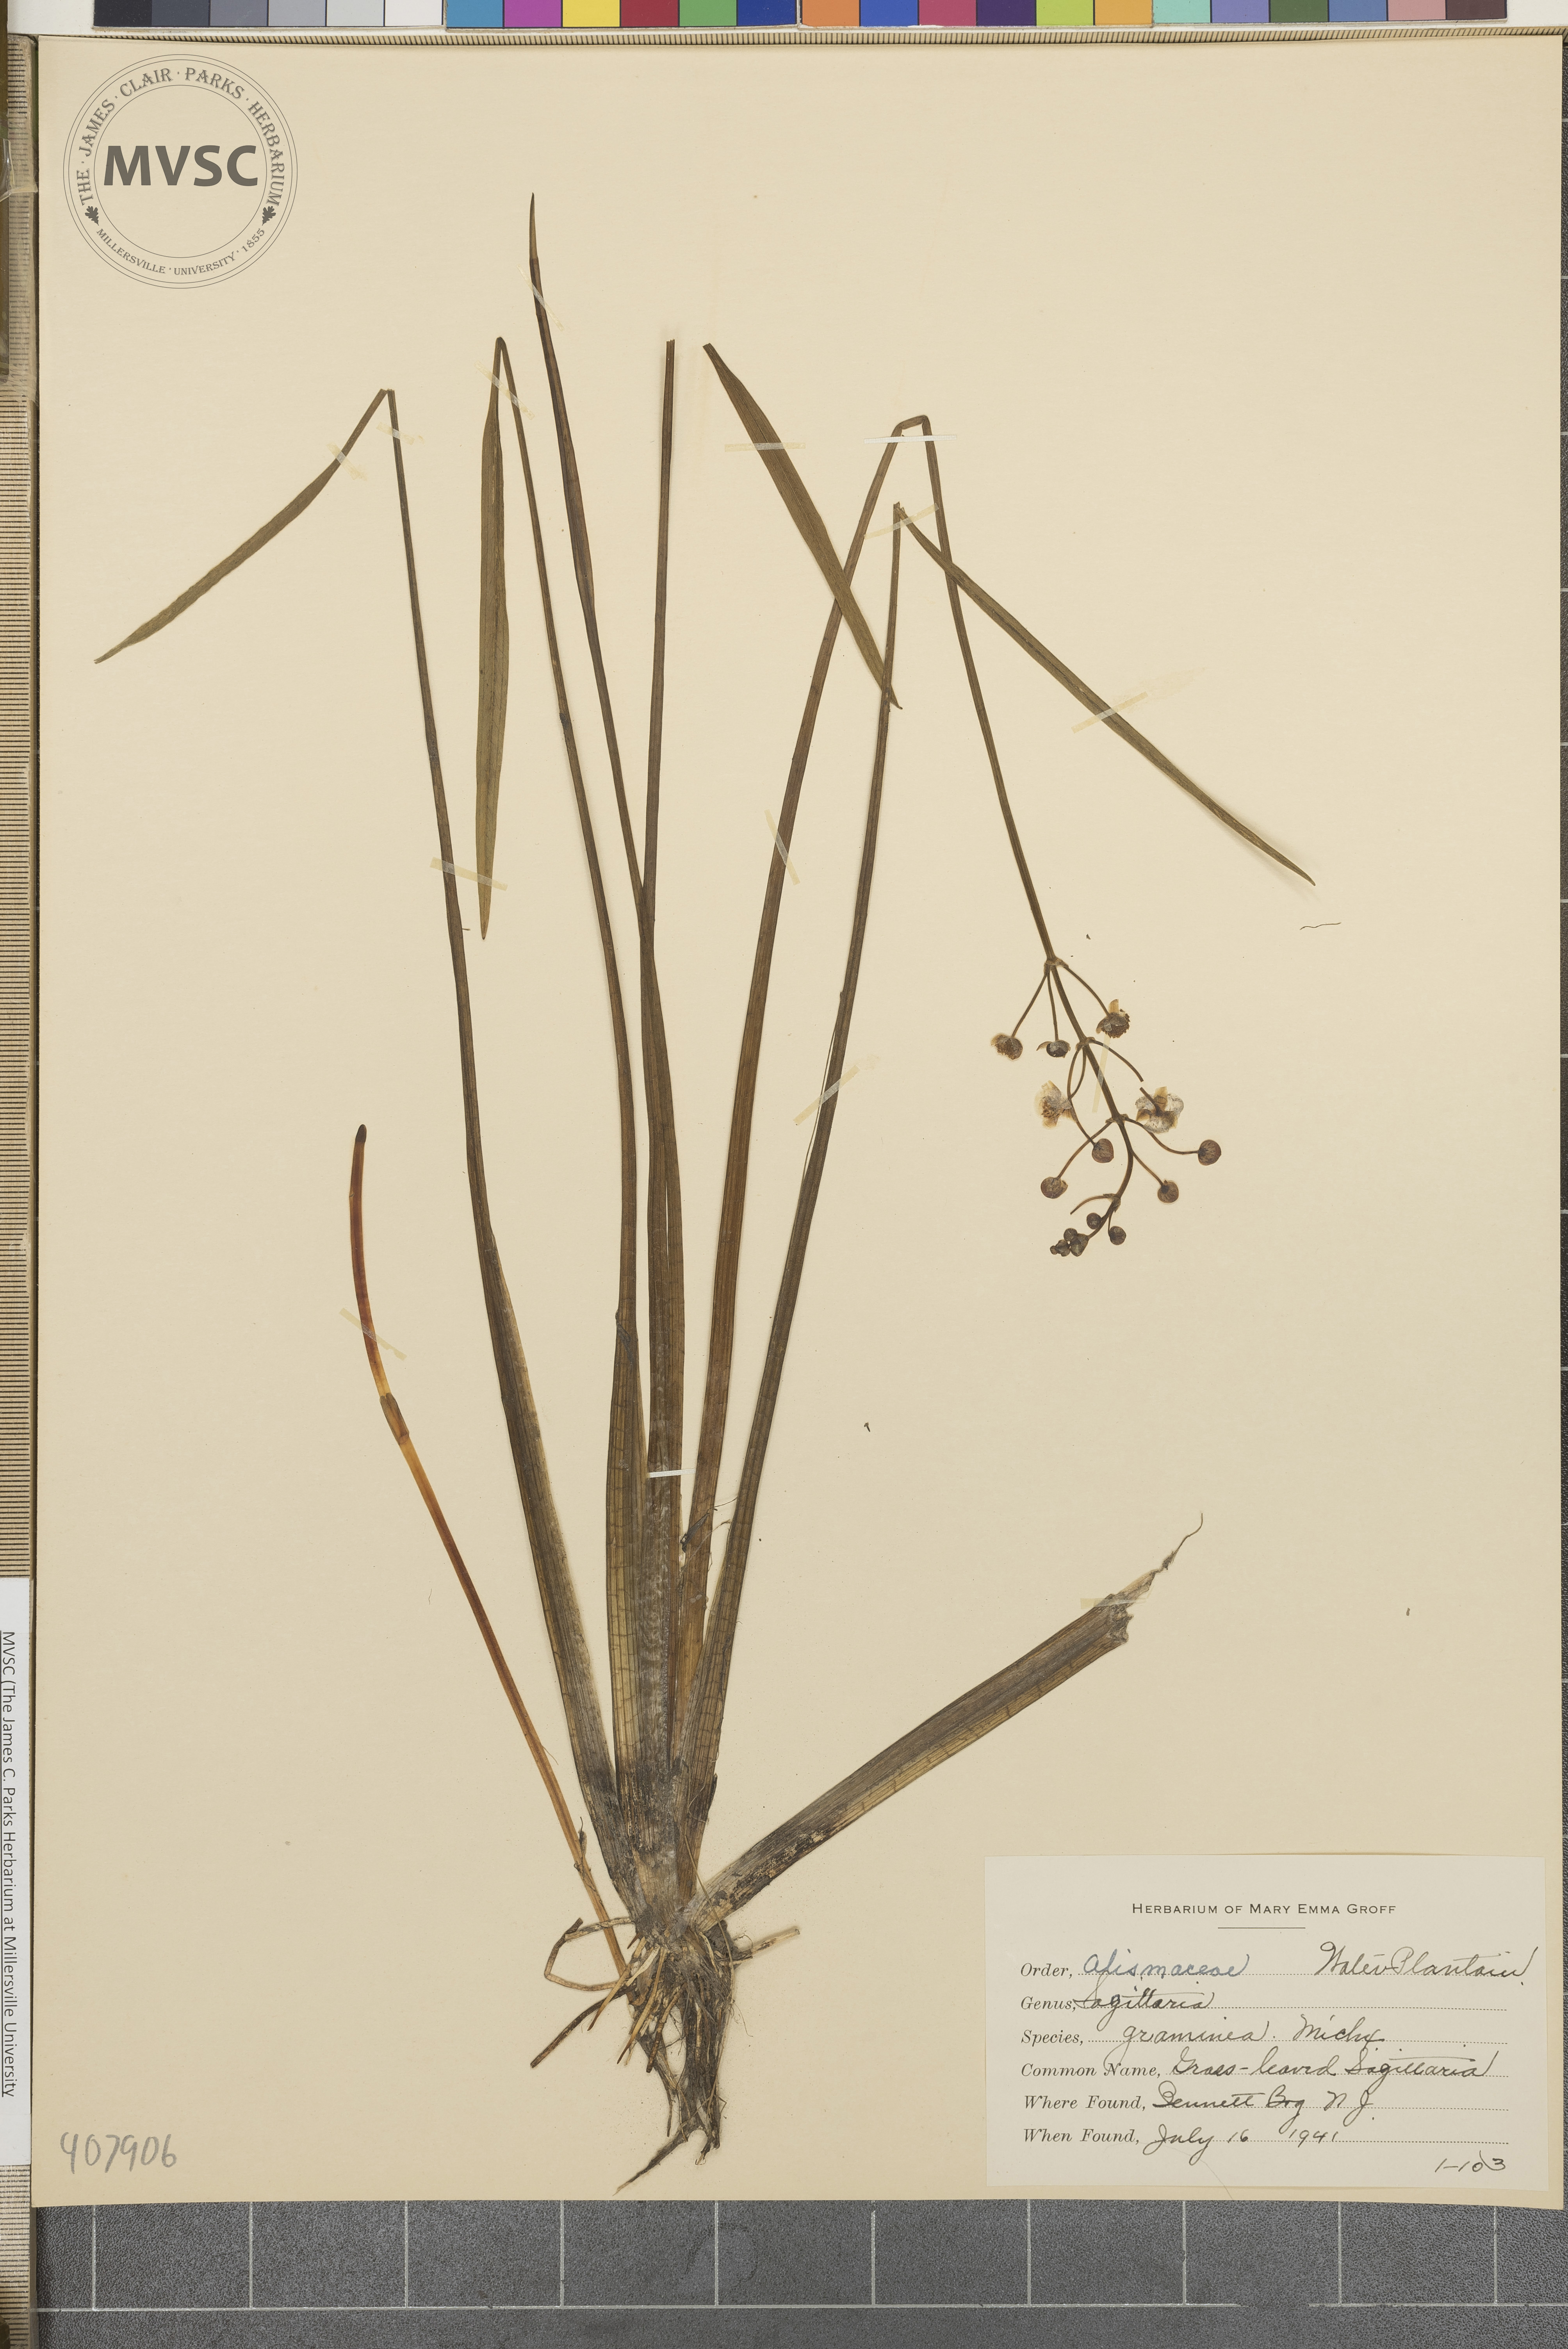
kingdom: Plantae
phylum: Tracheophyta
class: Liliopsida
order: Alismatales
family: Alismataceae
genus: Sagittaria
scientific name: Sagittaria graminea
